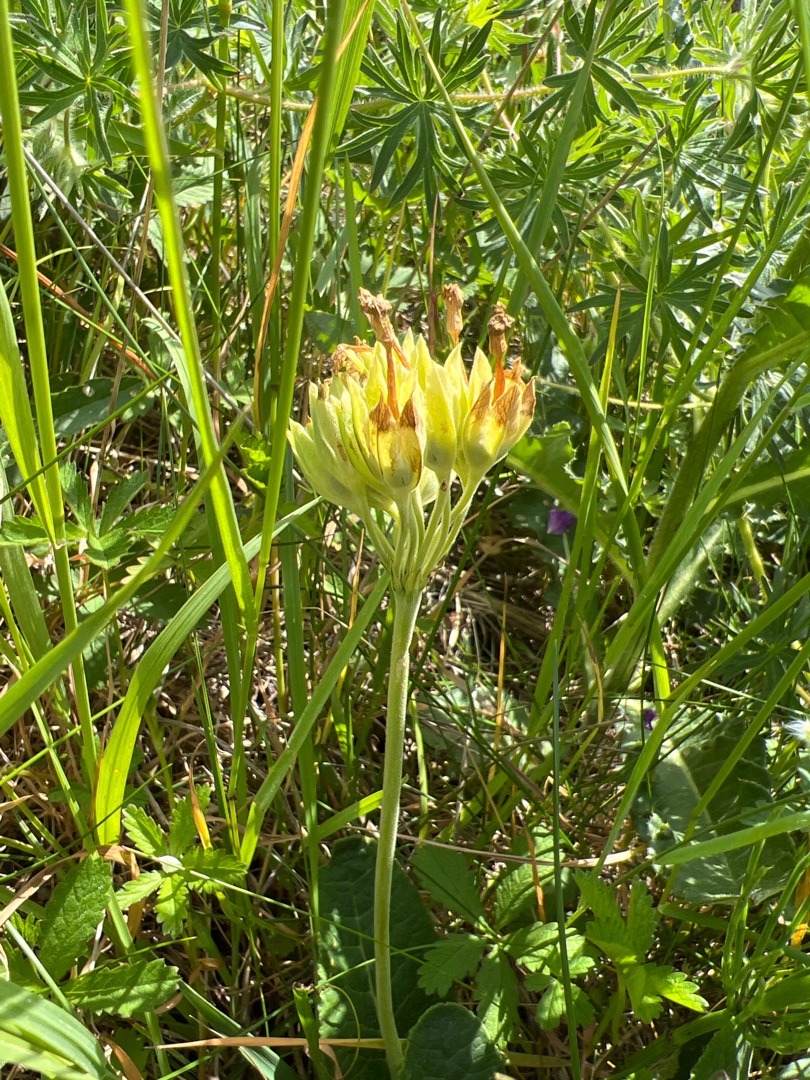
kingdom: Plantae
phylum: Tracheophyta
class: Magnoliopsida
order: Ericales
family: Primulaceae
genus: Primula
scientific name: Primula veris
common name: Hulkravet kodriver
